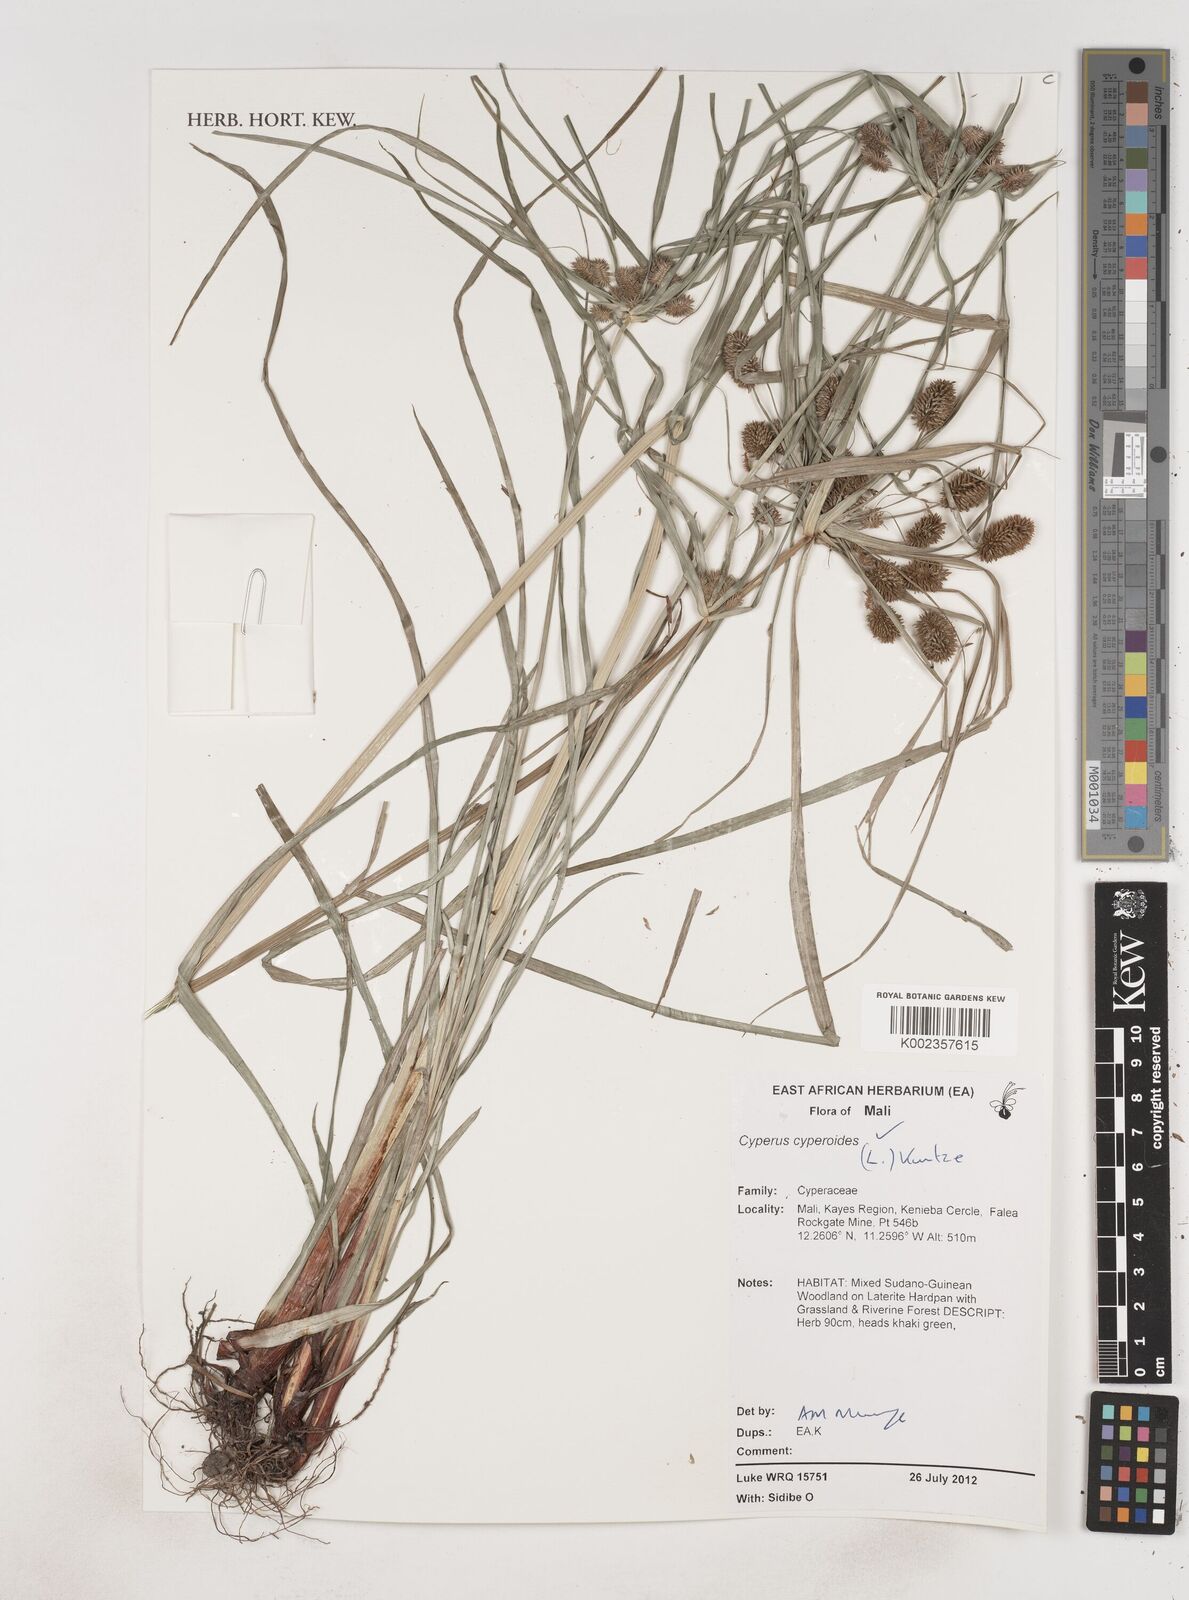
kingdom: Plantae
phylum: Tracheophyta
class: Liliopsida
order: Poales
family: Cyperaceae
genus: Cyperus
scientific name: Cyperus cyperoides
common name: Pacific island flat sedge
